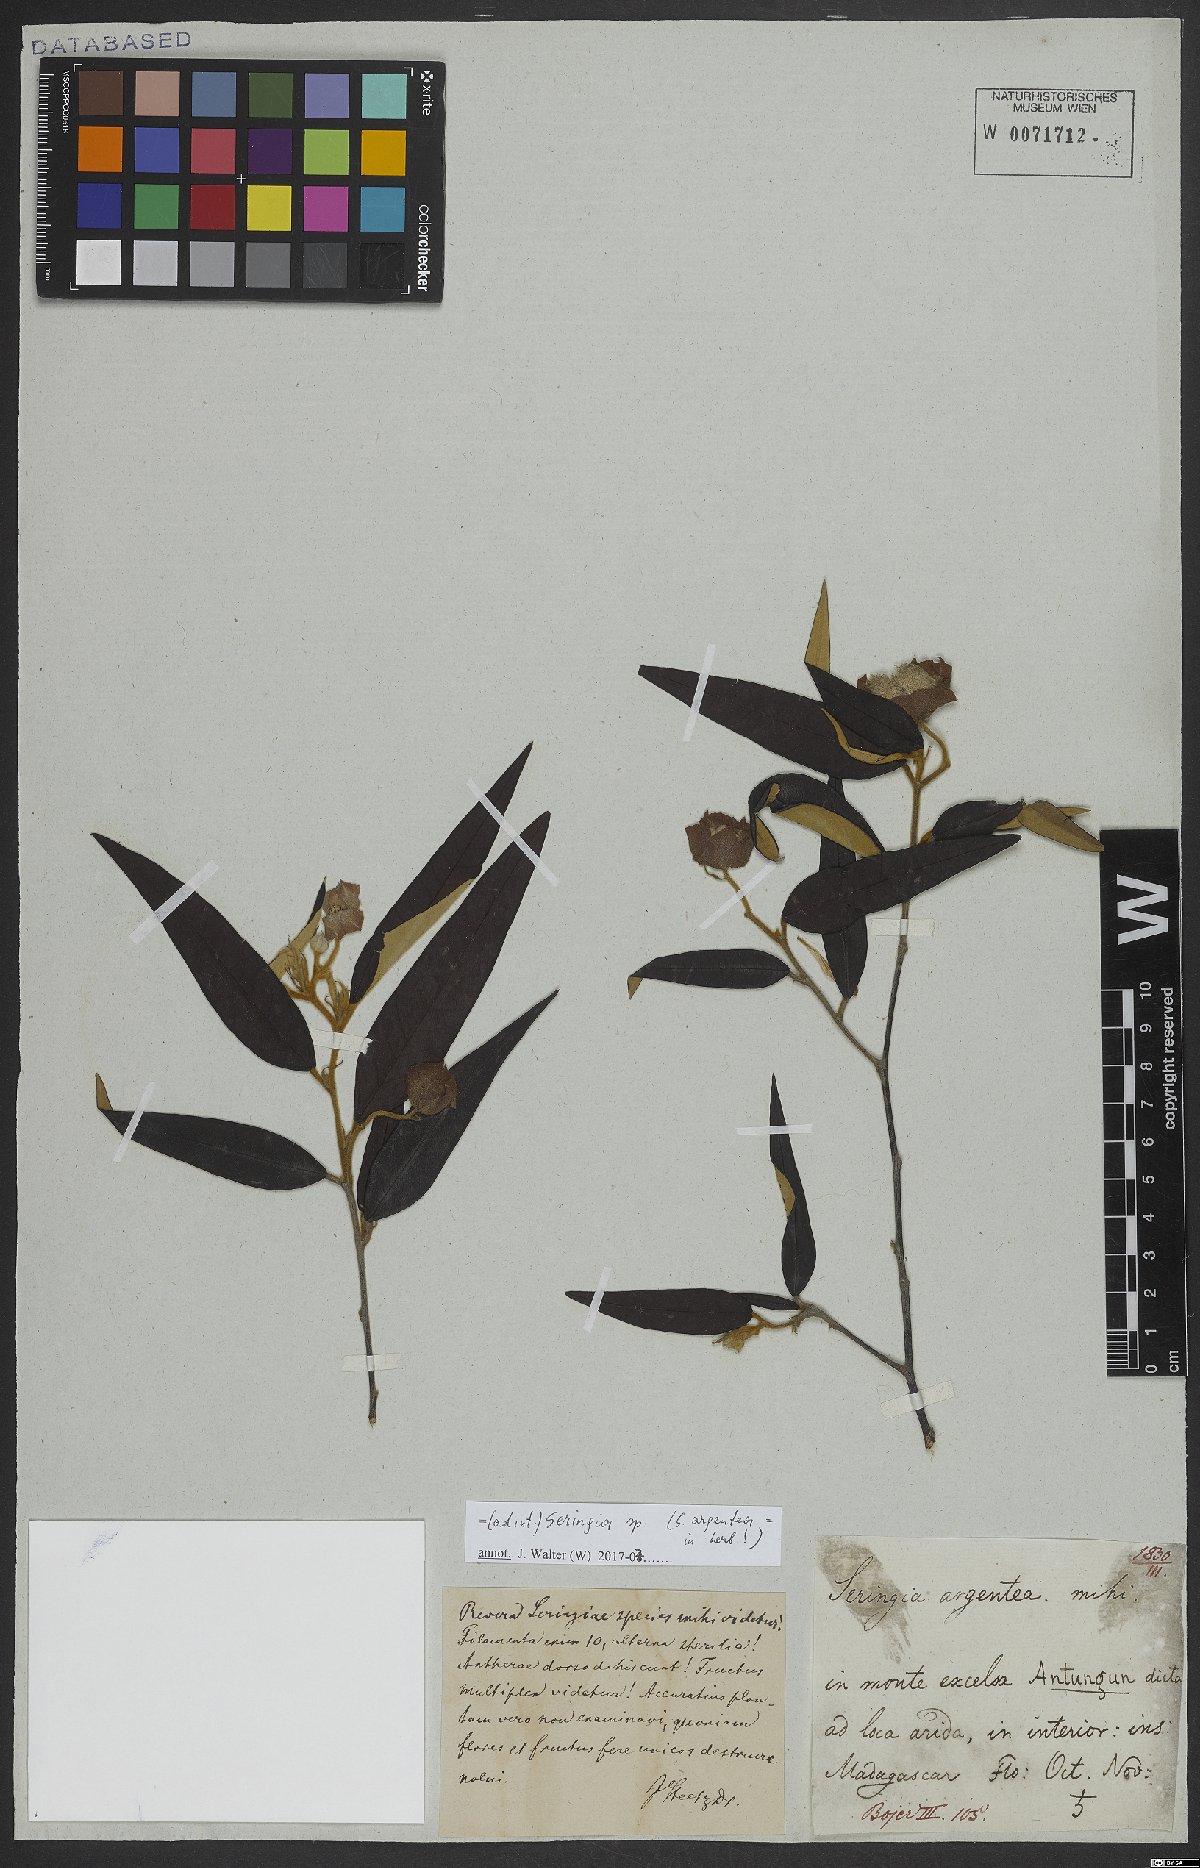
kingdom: Plantae
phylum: Tracheophyta
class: Magnoliopsida
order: Malvales
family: Malvaceae
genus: Seringia
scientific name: Seringia
